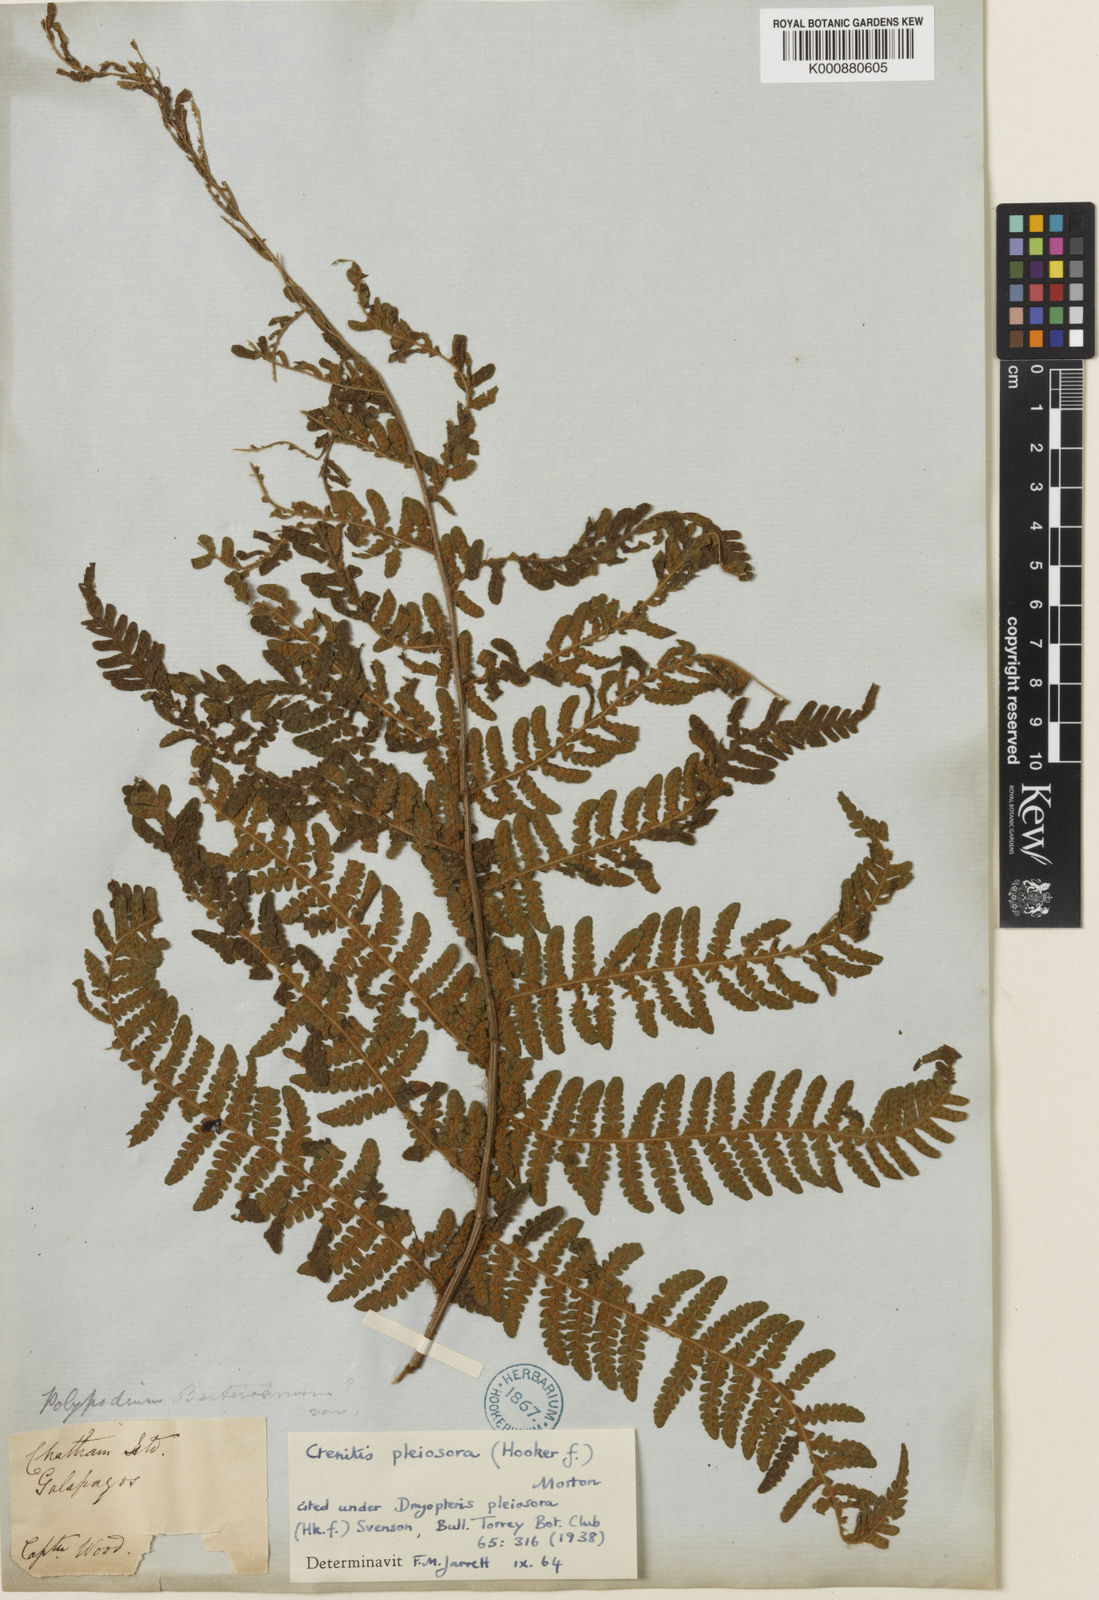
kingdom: Plantae
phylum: Tracheophyta
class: Polypodiopsida
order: Polypodiales
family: Dryopteridaceae
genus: Megalastrum
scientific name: Megalastrum inaequalifolium
